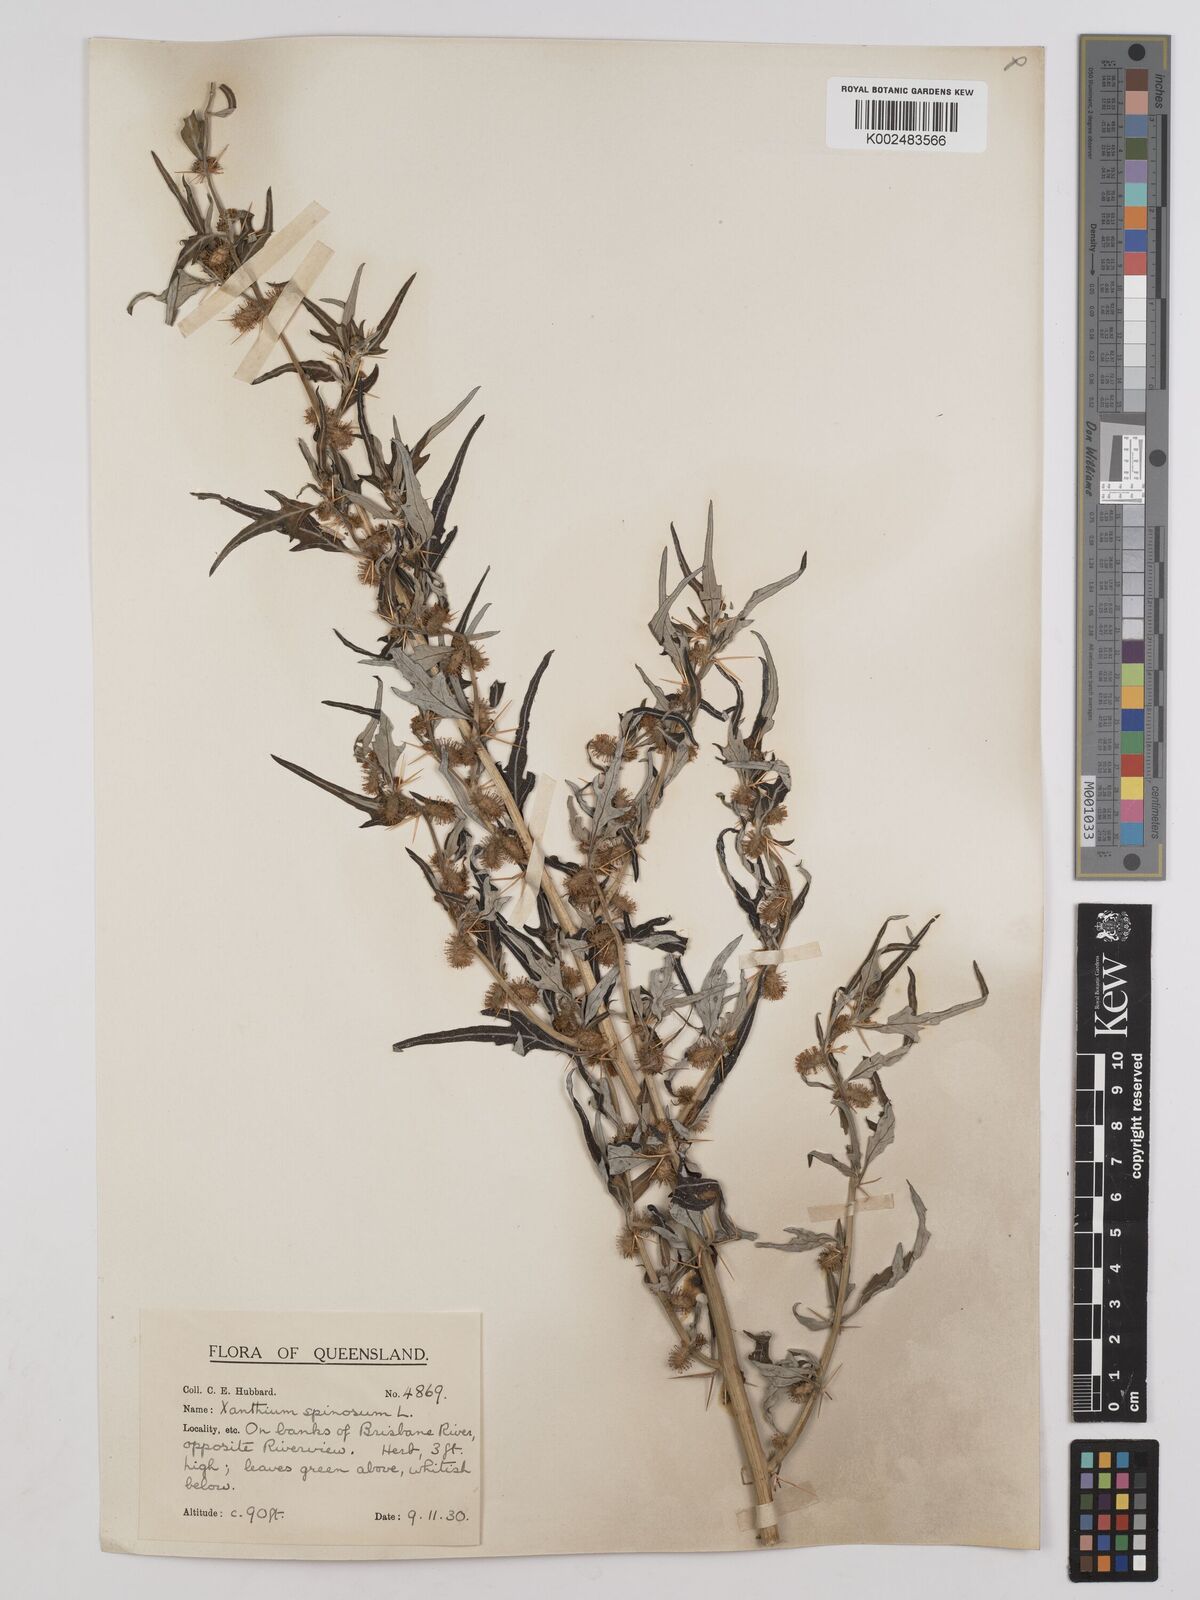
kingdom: Plantae
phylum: Tracheophyta
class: Magnoliopsida
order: Asterales
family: Asteraceae
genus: Xanthium
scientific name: Xanthium spinosum
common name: Spiny cocklebur
